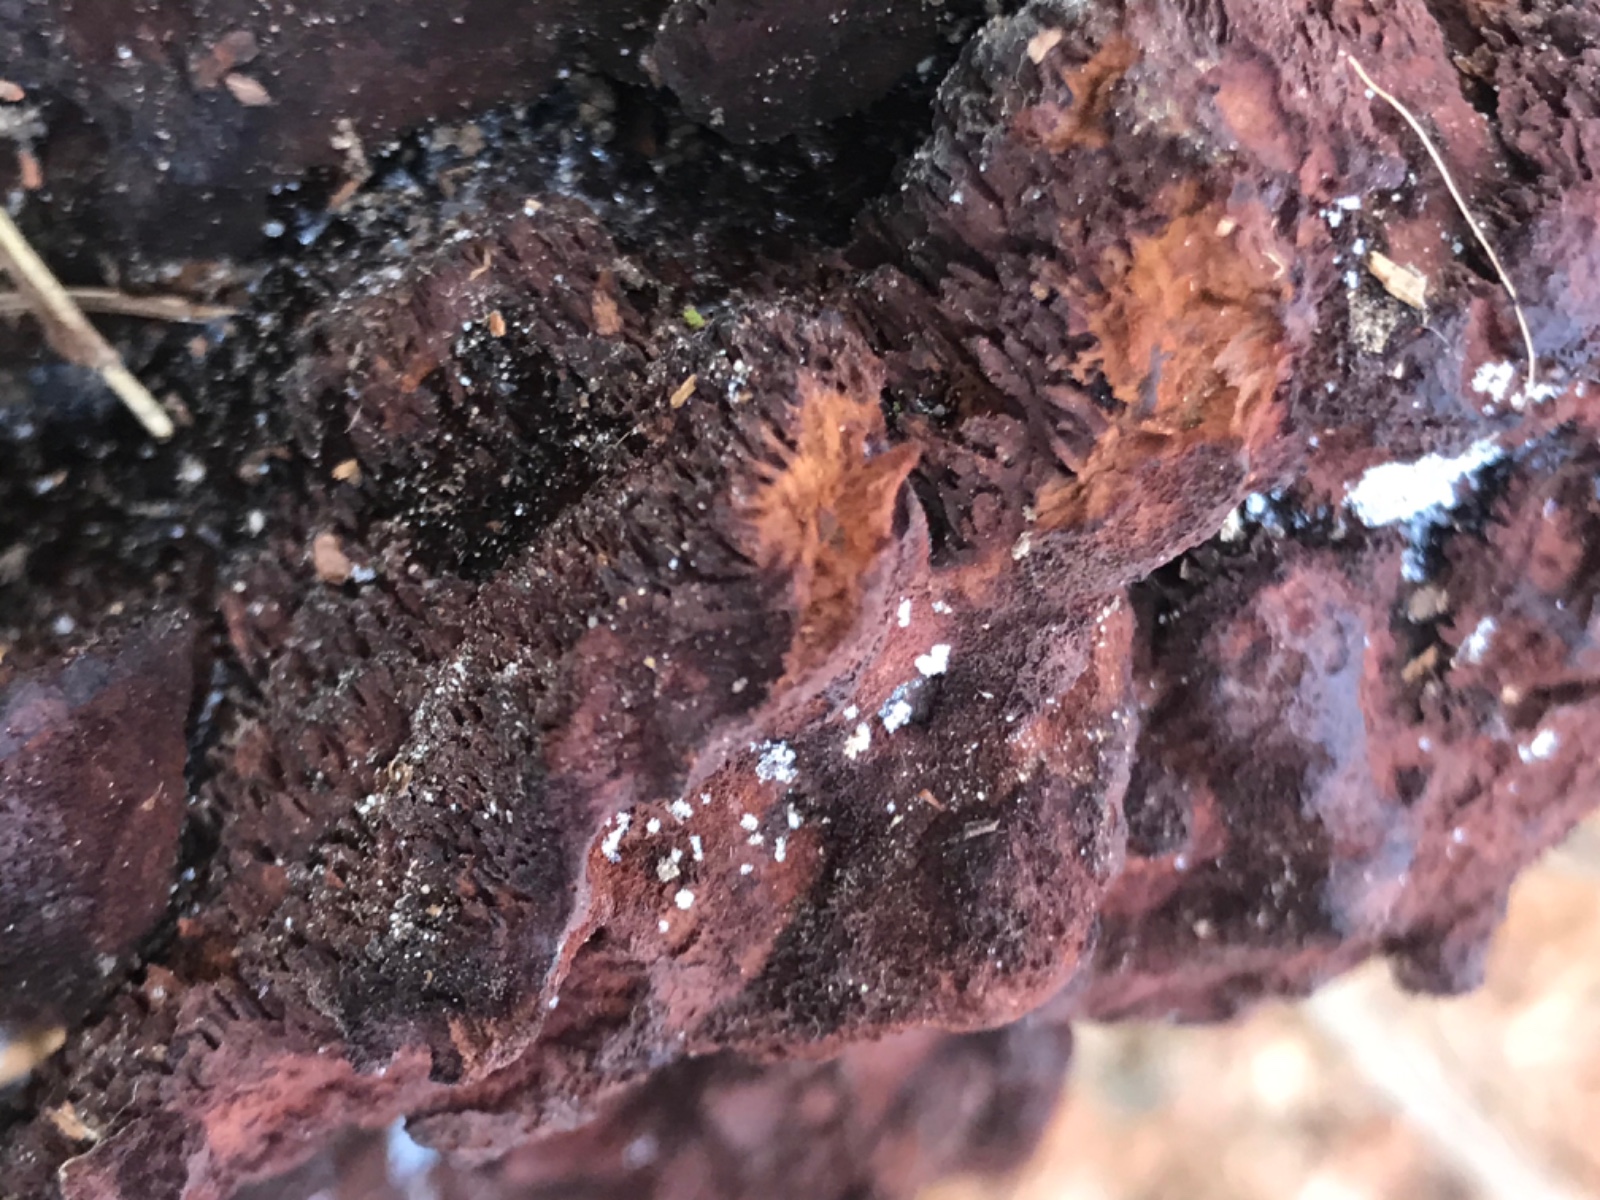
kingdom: Fungi
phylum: Basidiomycota
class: Agaricomycetes
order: Polyporales
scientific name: Polyporales
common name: poresvampordenen
